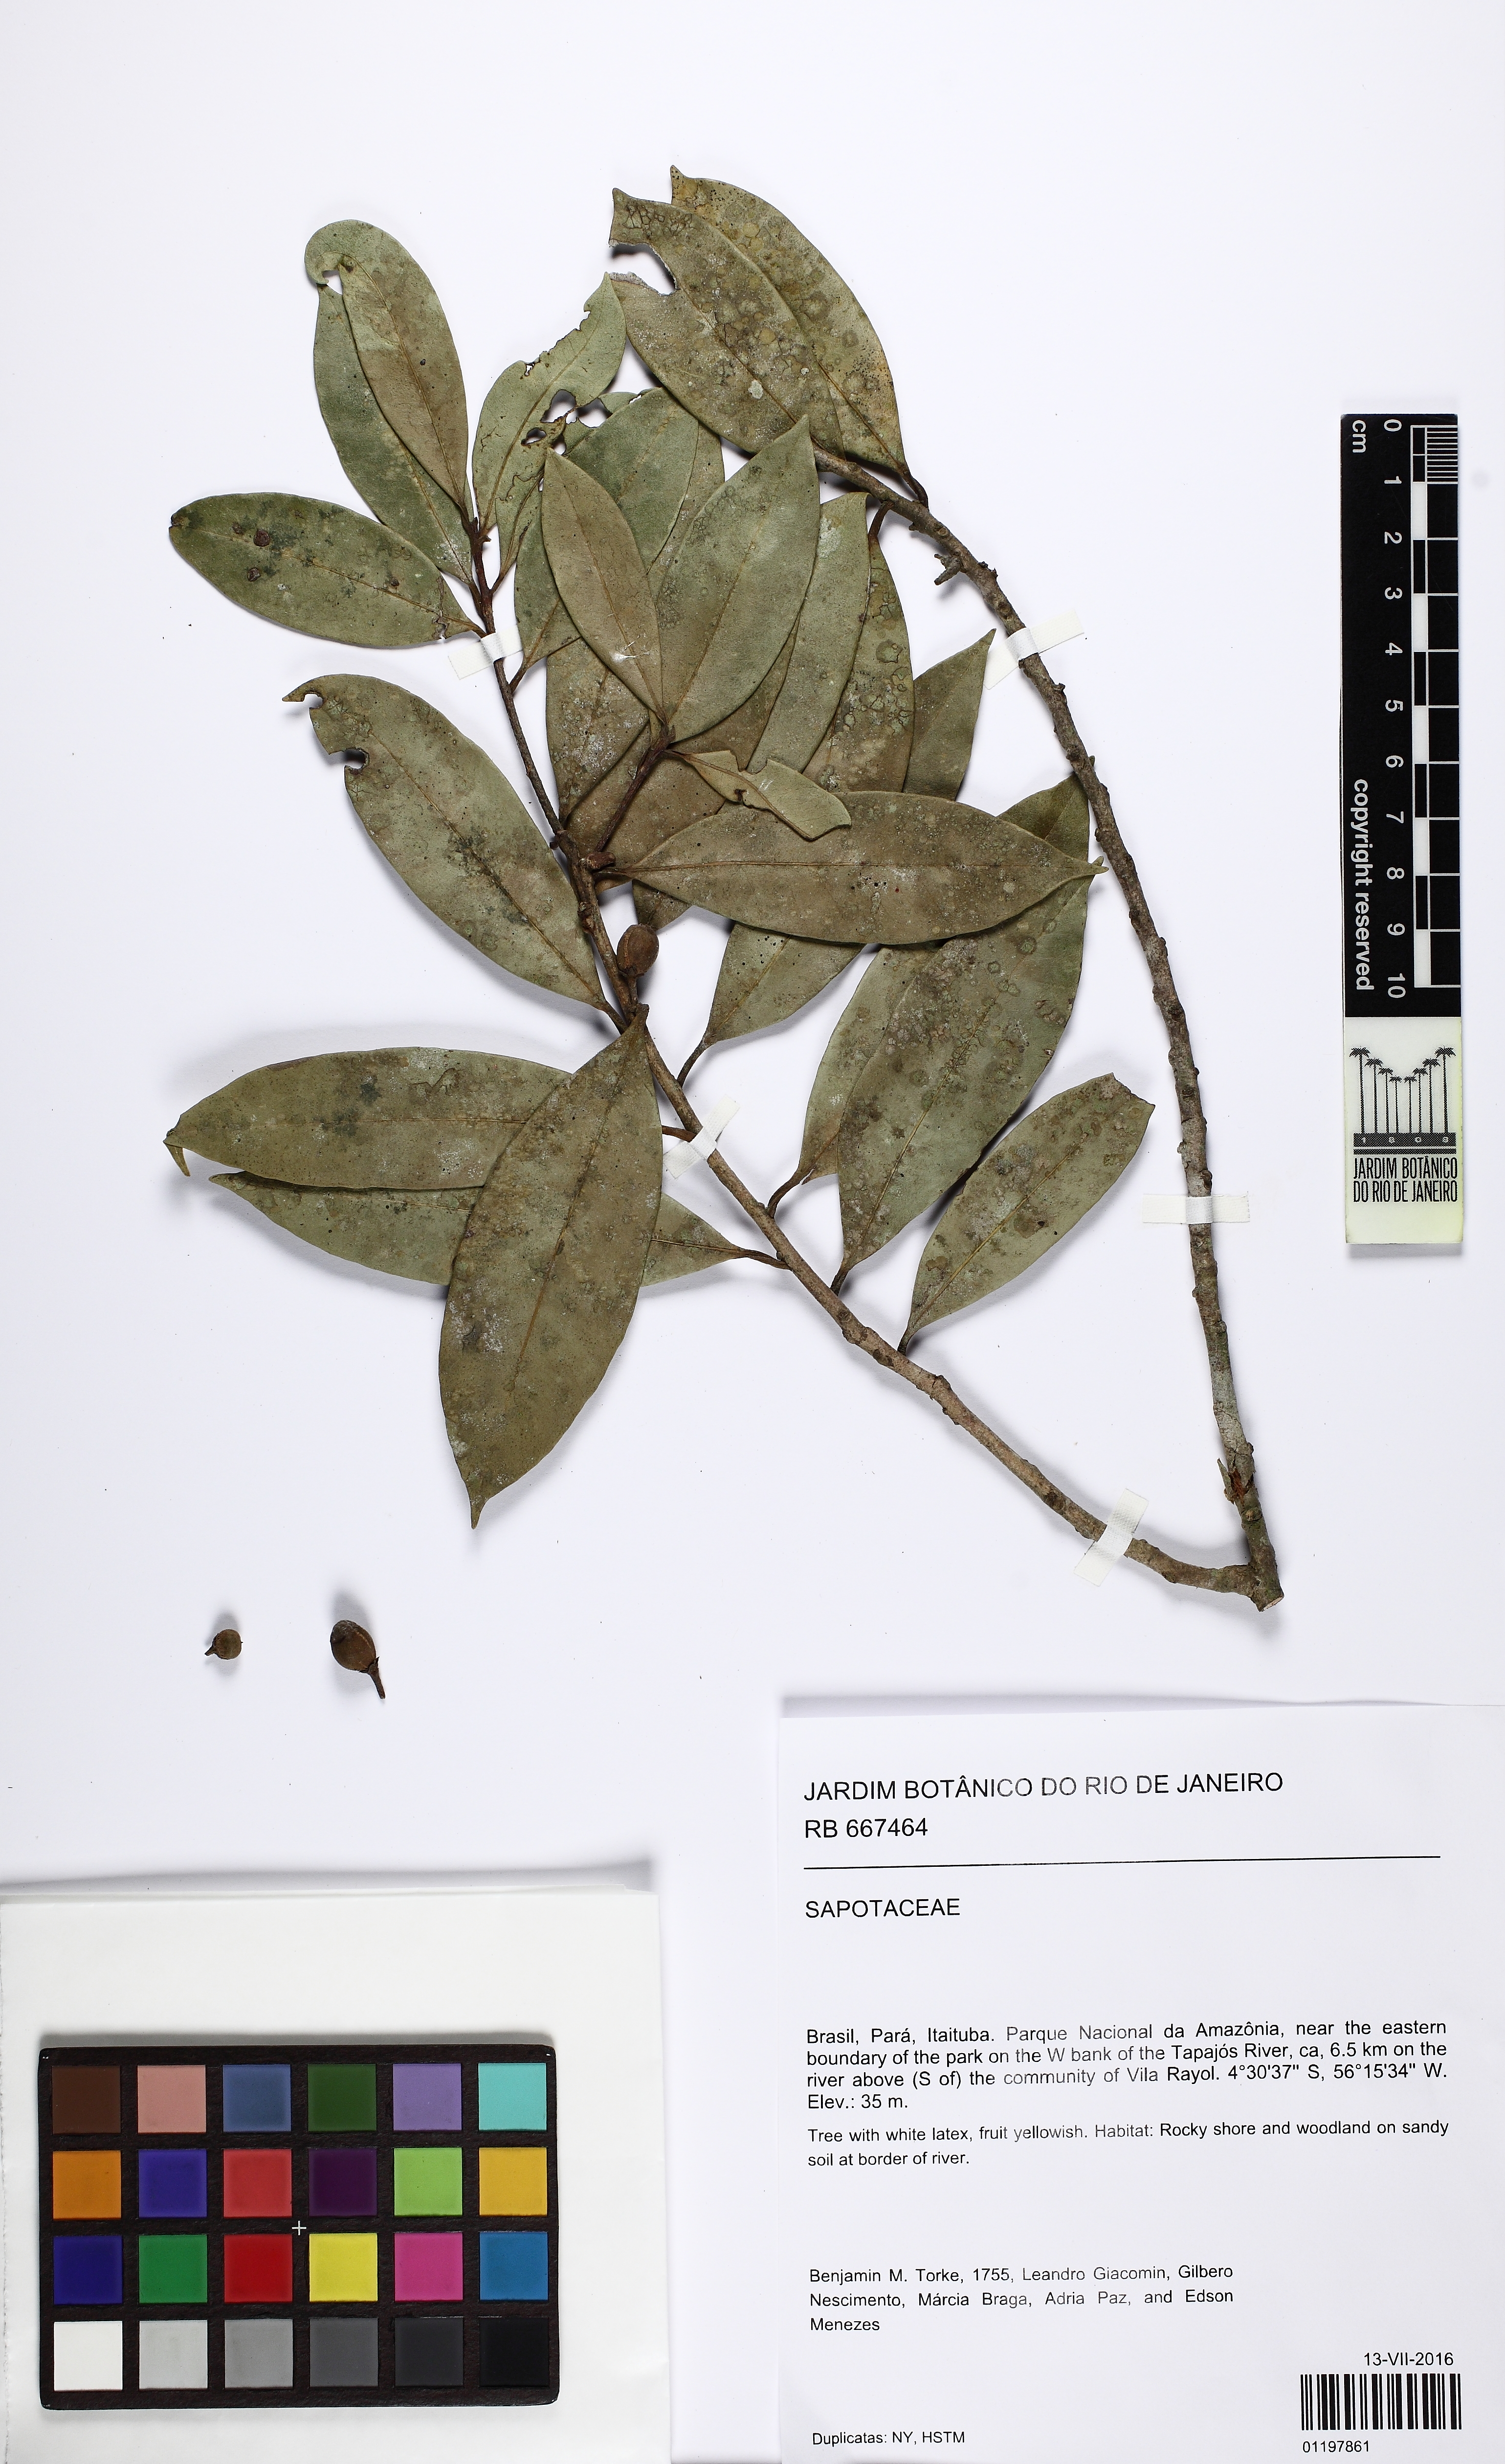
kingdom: Plantae
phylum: Tracheophyta
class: Magnoliopsida
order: Ericales
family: Sapotaceae
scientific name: Sapotaceae
